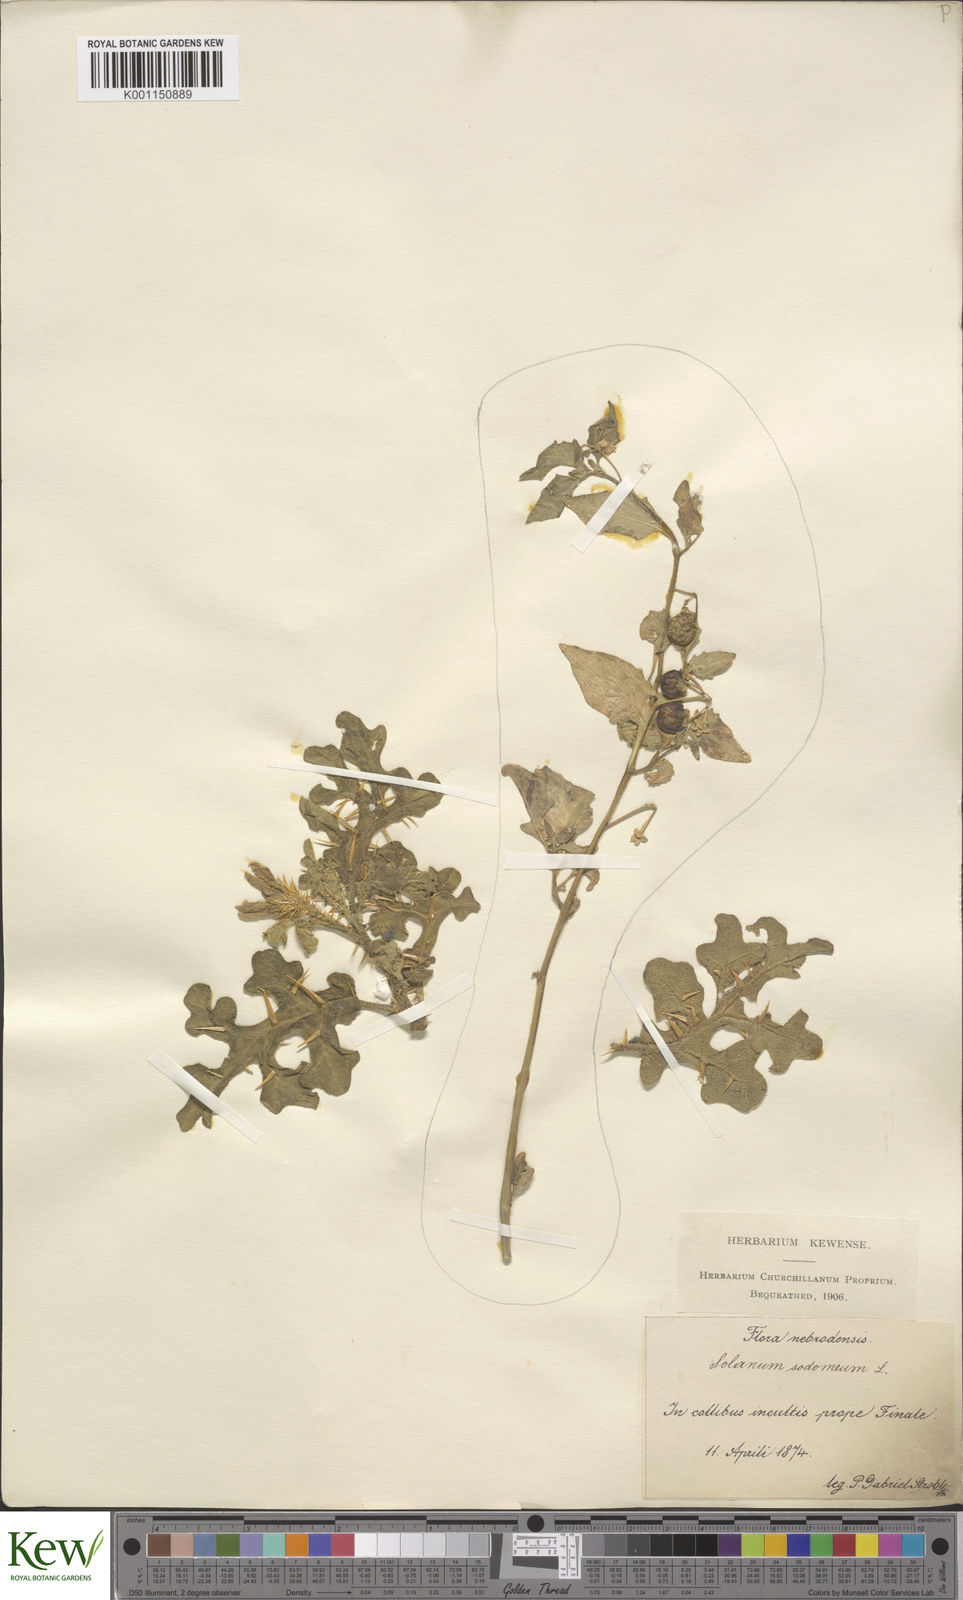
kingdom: Plantae
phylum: Tracheophyta
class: Magnoliopsida
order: Solanales
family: Solanaceae
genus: Solanum
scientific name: Solanum anguivi
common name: Forest bitterberry
